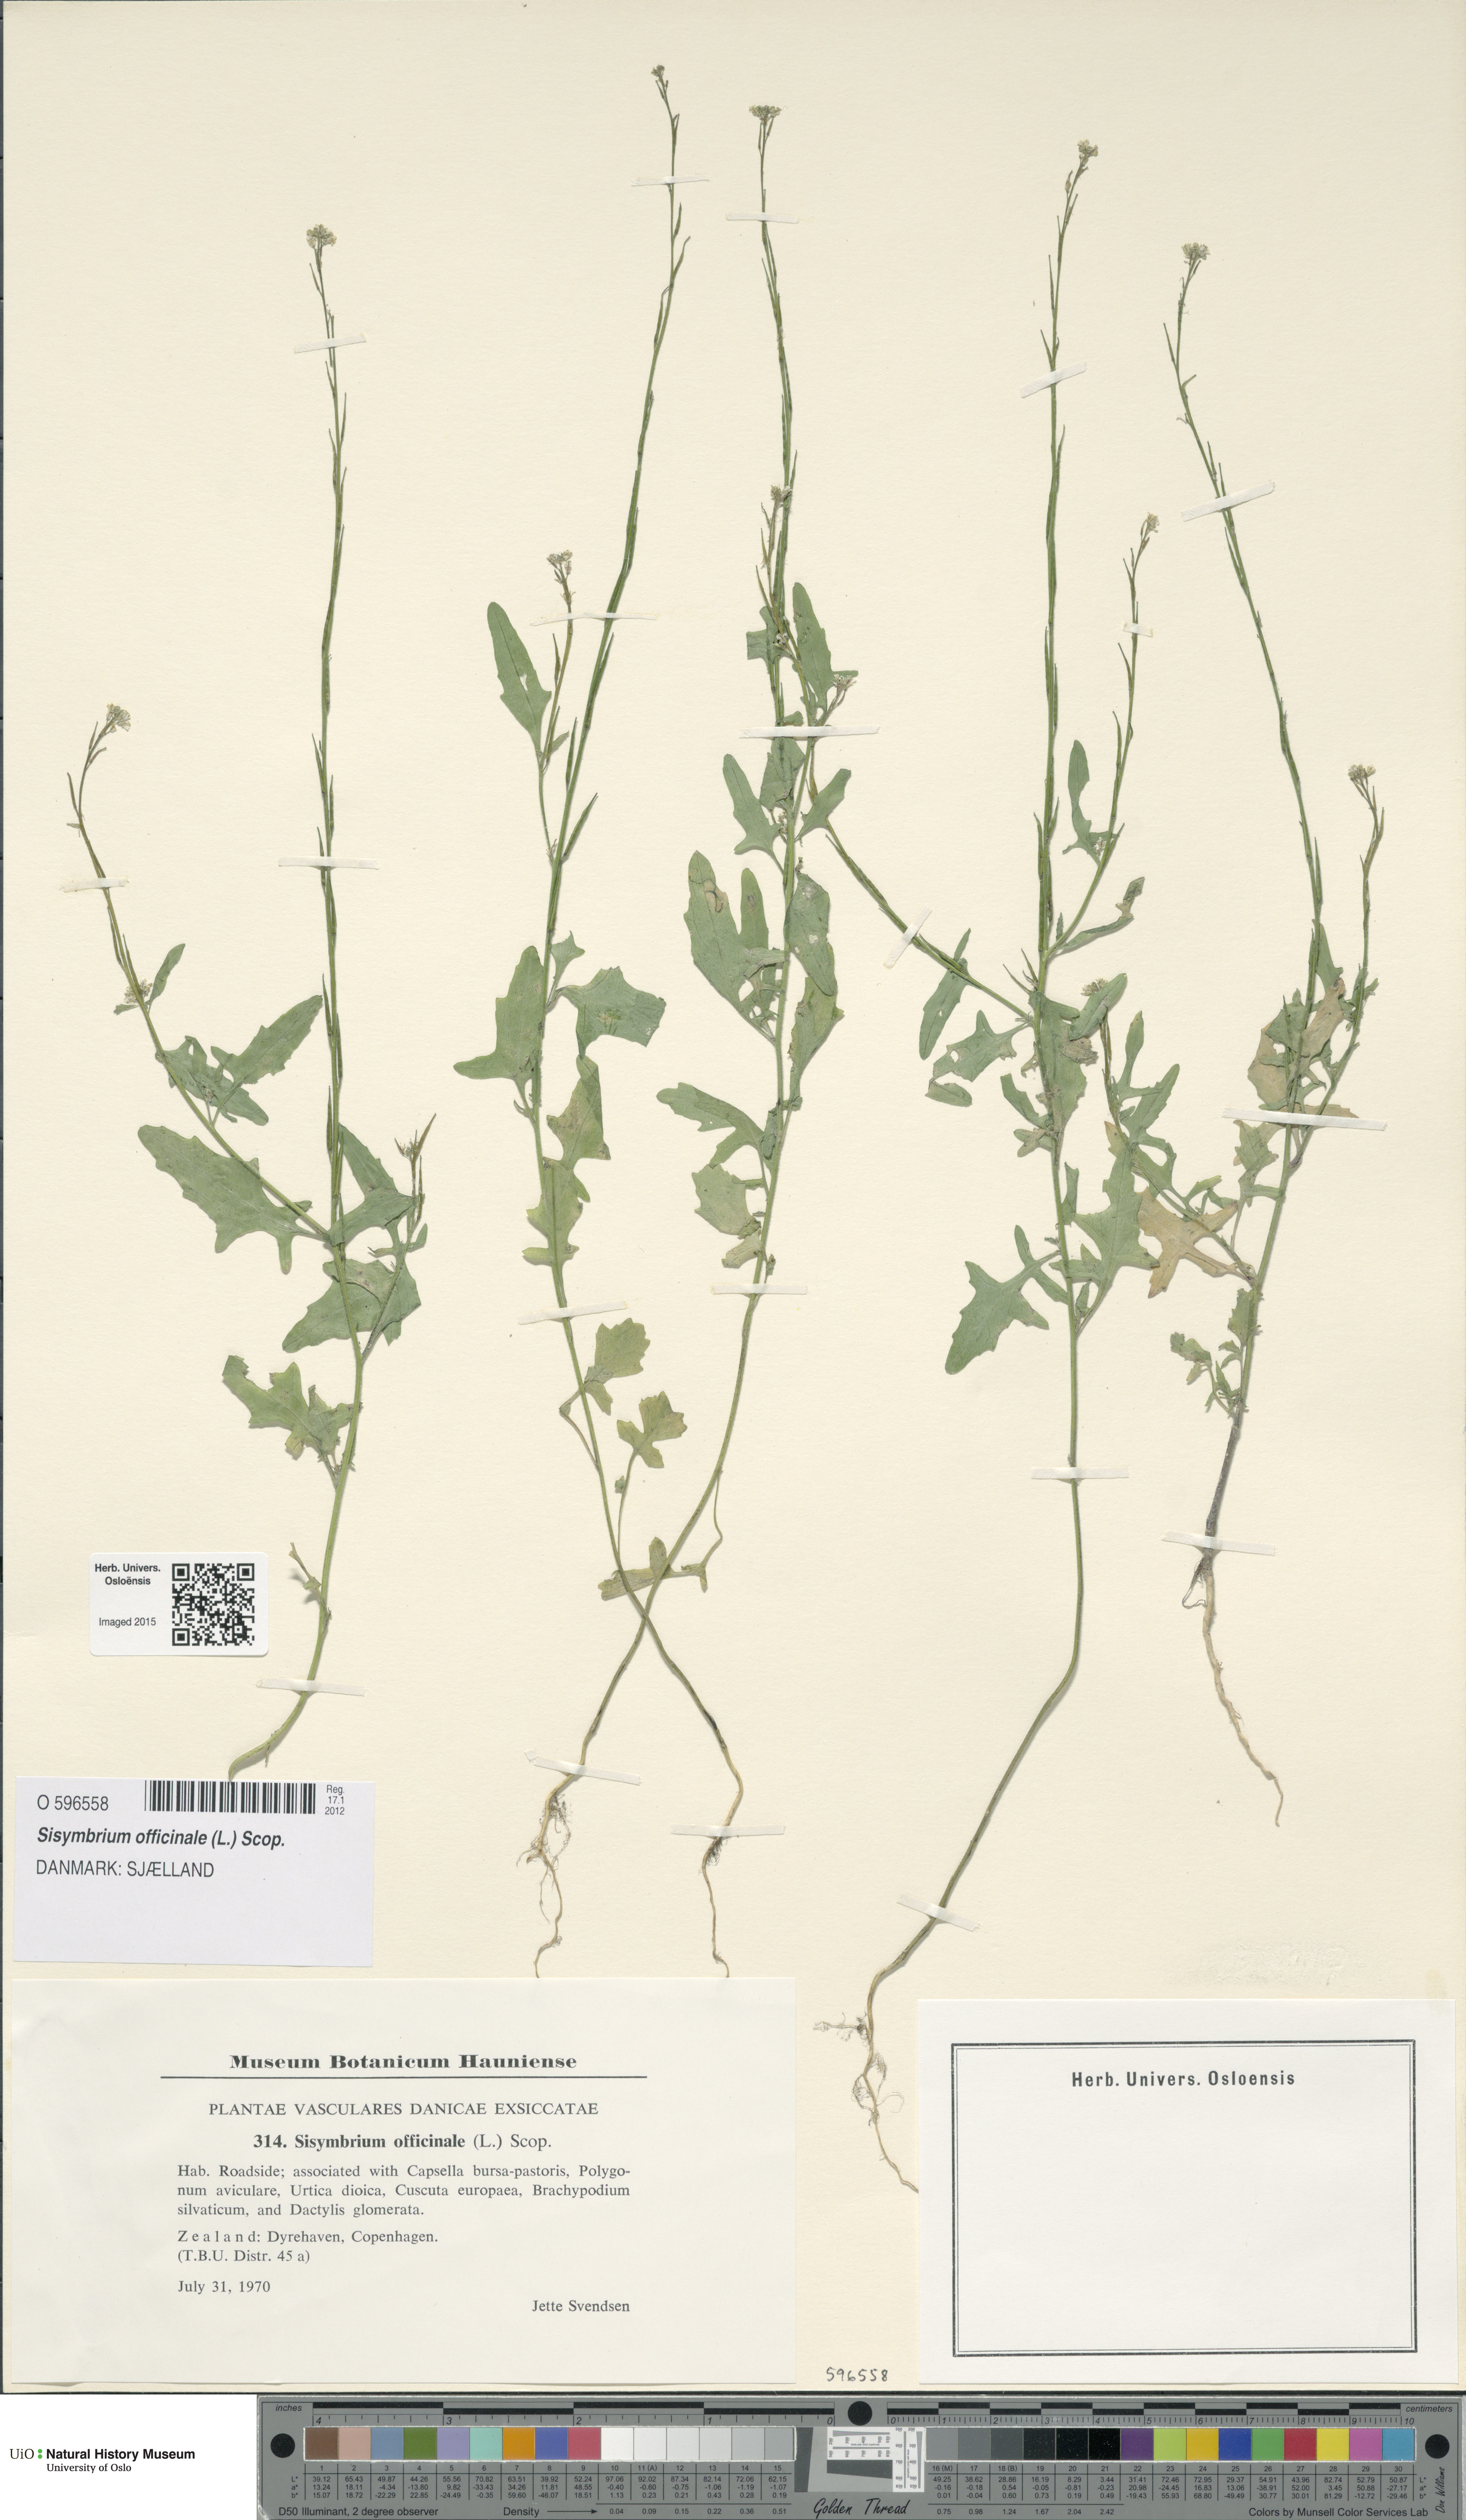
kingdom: Plantae
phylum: Tracheophyta
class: Magnoliopsida
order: Brassicales
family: Brassicaceae
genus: Sisymbrium
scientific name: Sisymbrium officinale
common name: Hedge mustard
